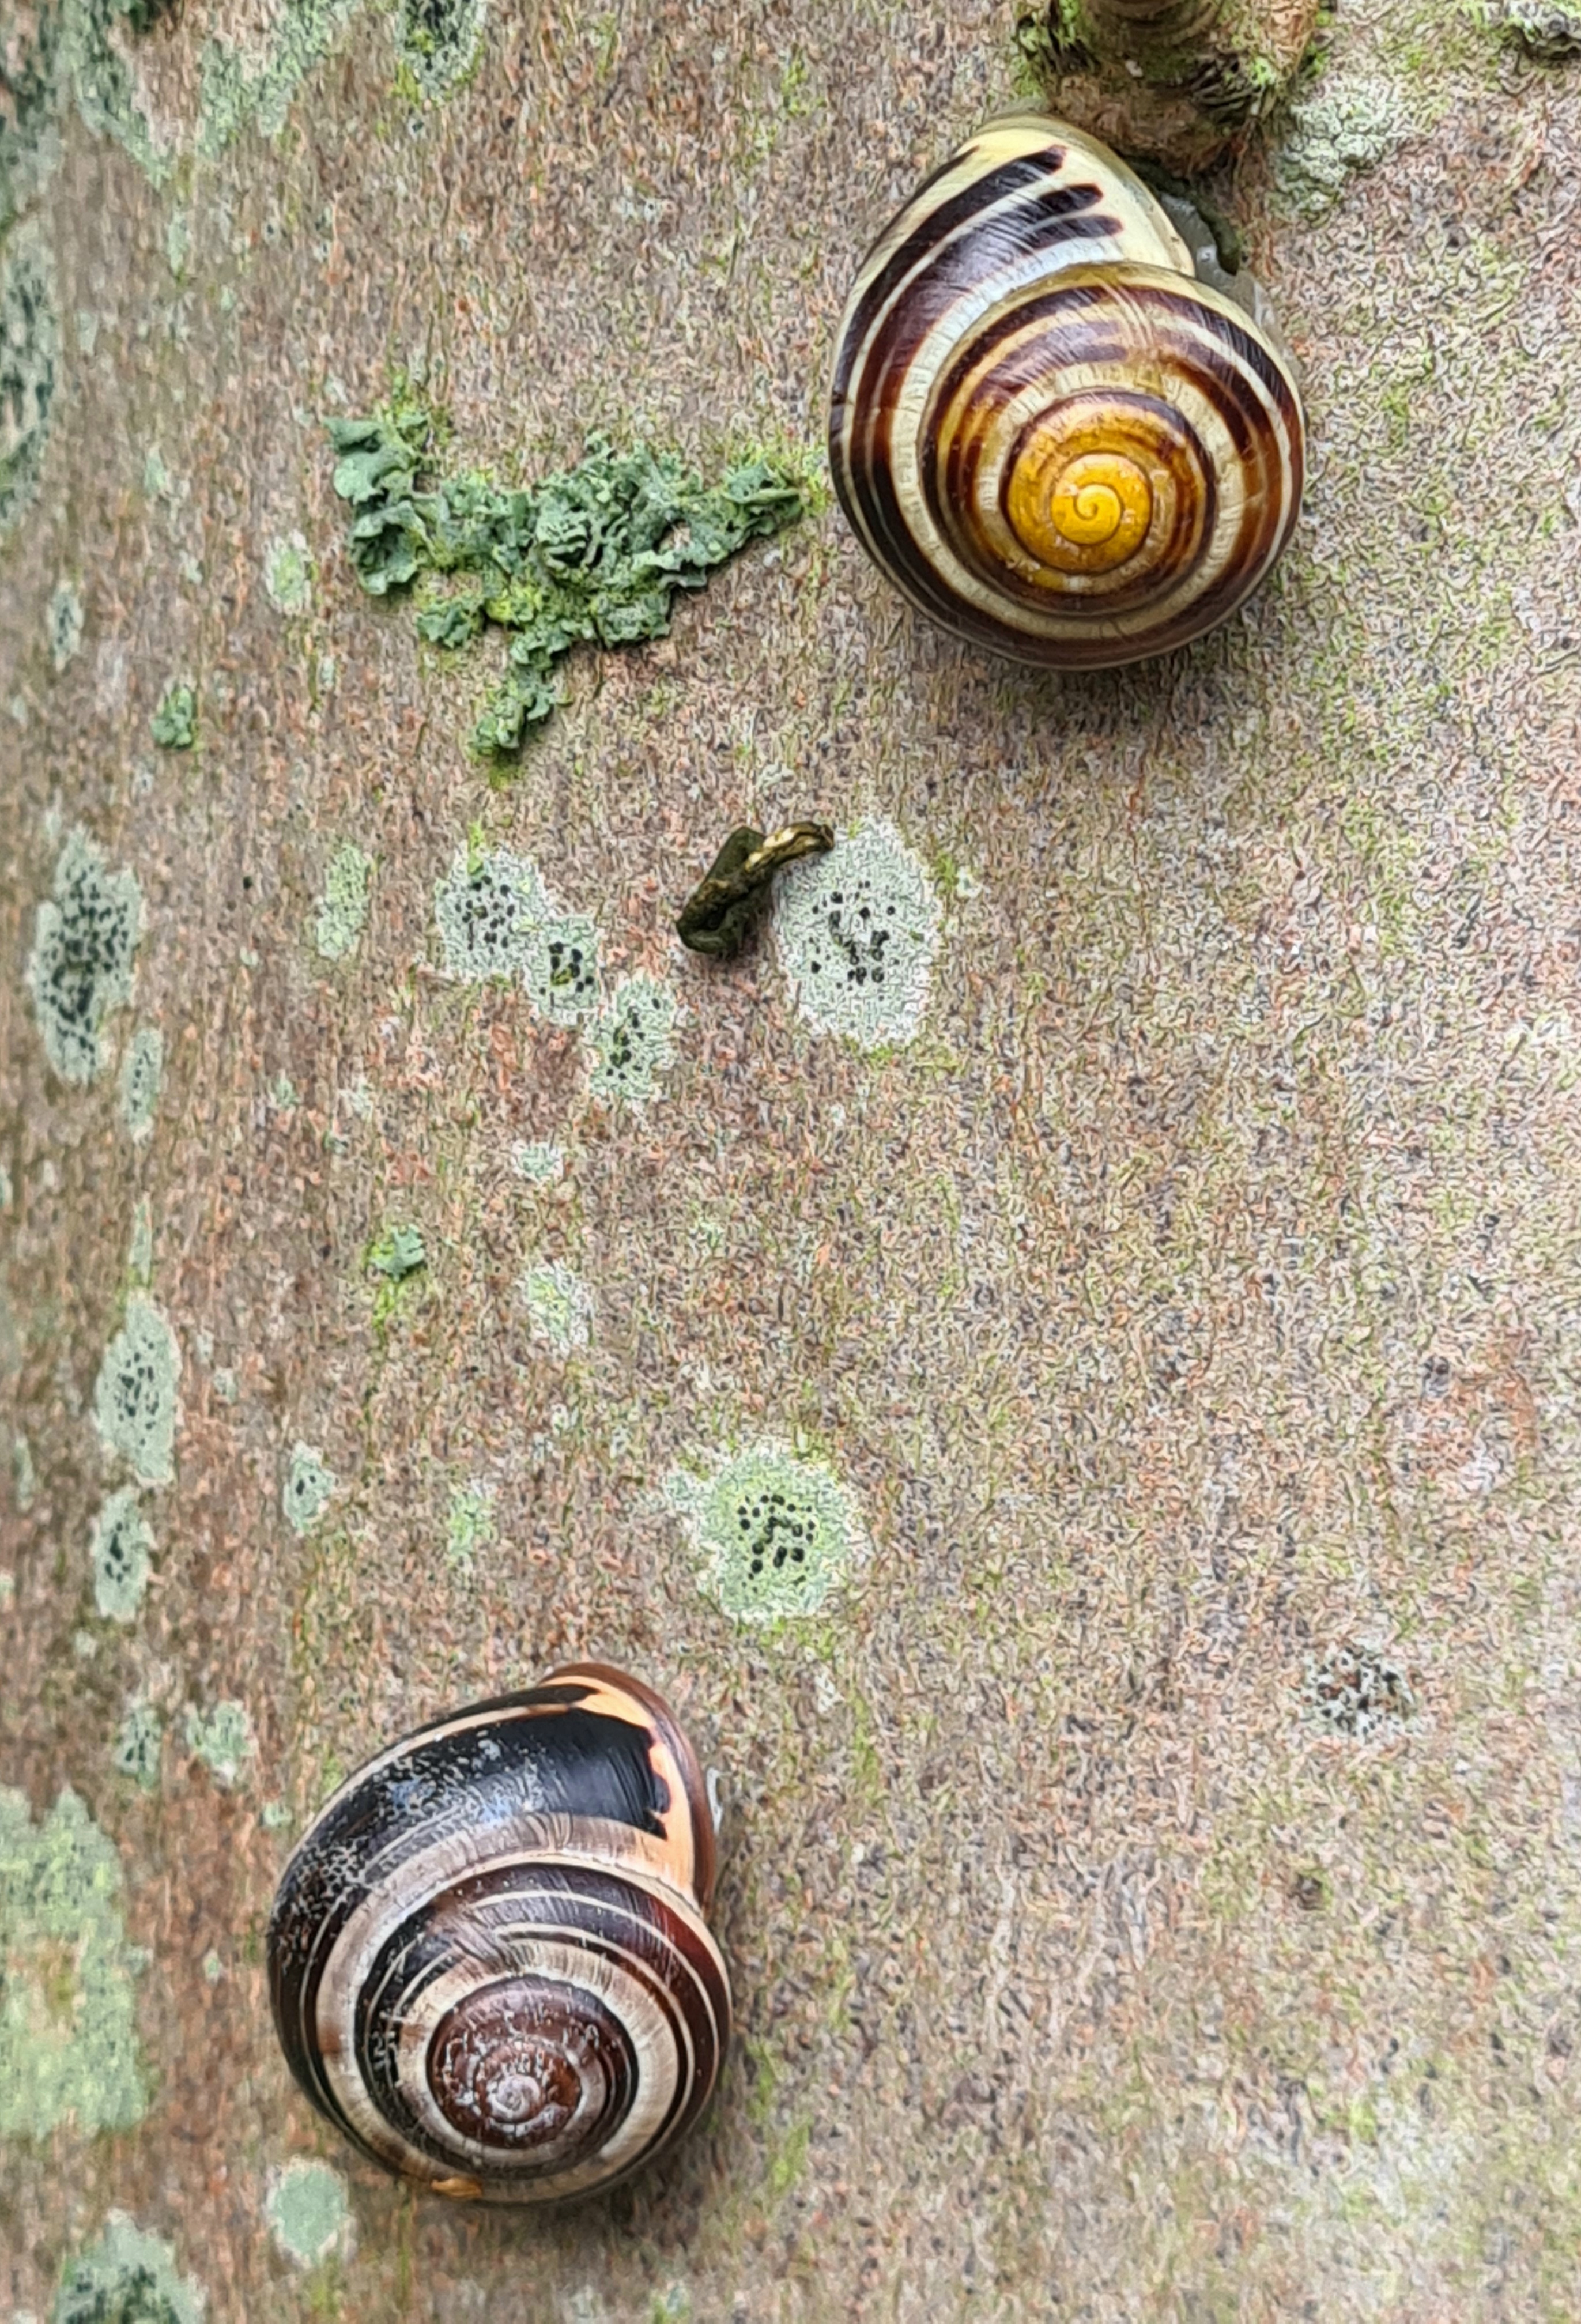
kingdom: Animalia
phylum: Mollusca
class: Gastropoda
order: Stylommatophora
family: Helicidae
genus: Cepaea
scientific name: Cepaea nemoralis
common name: Lundsnegl
